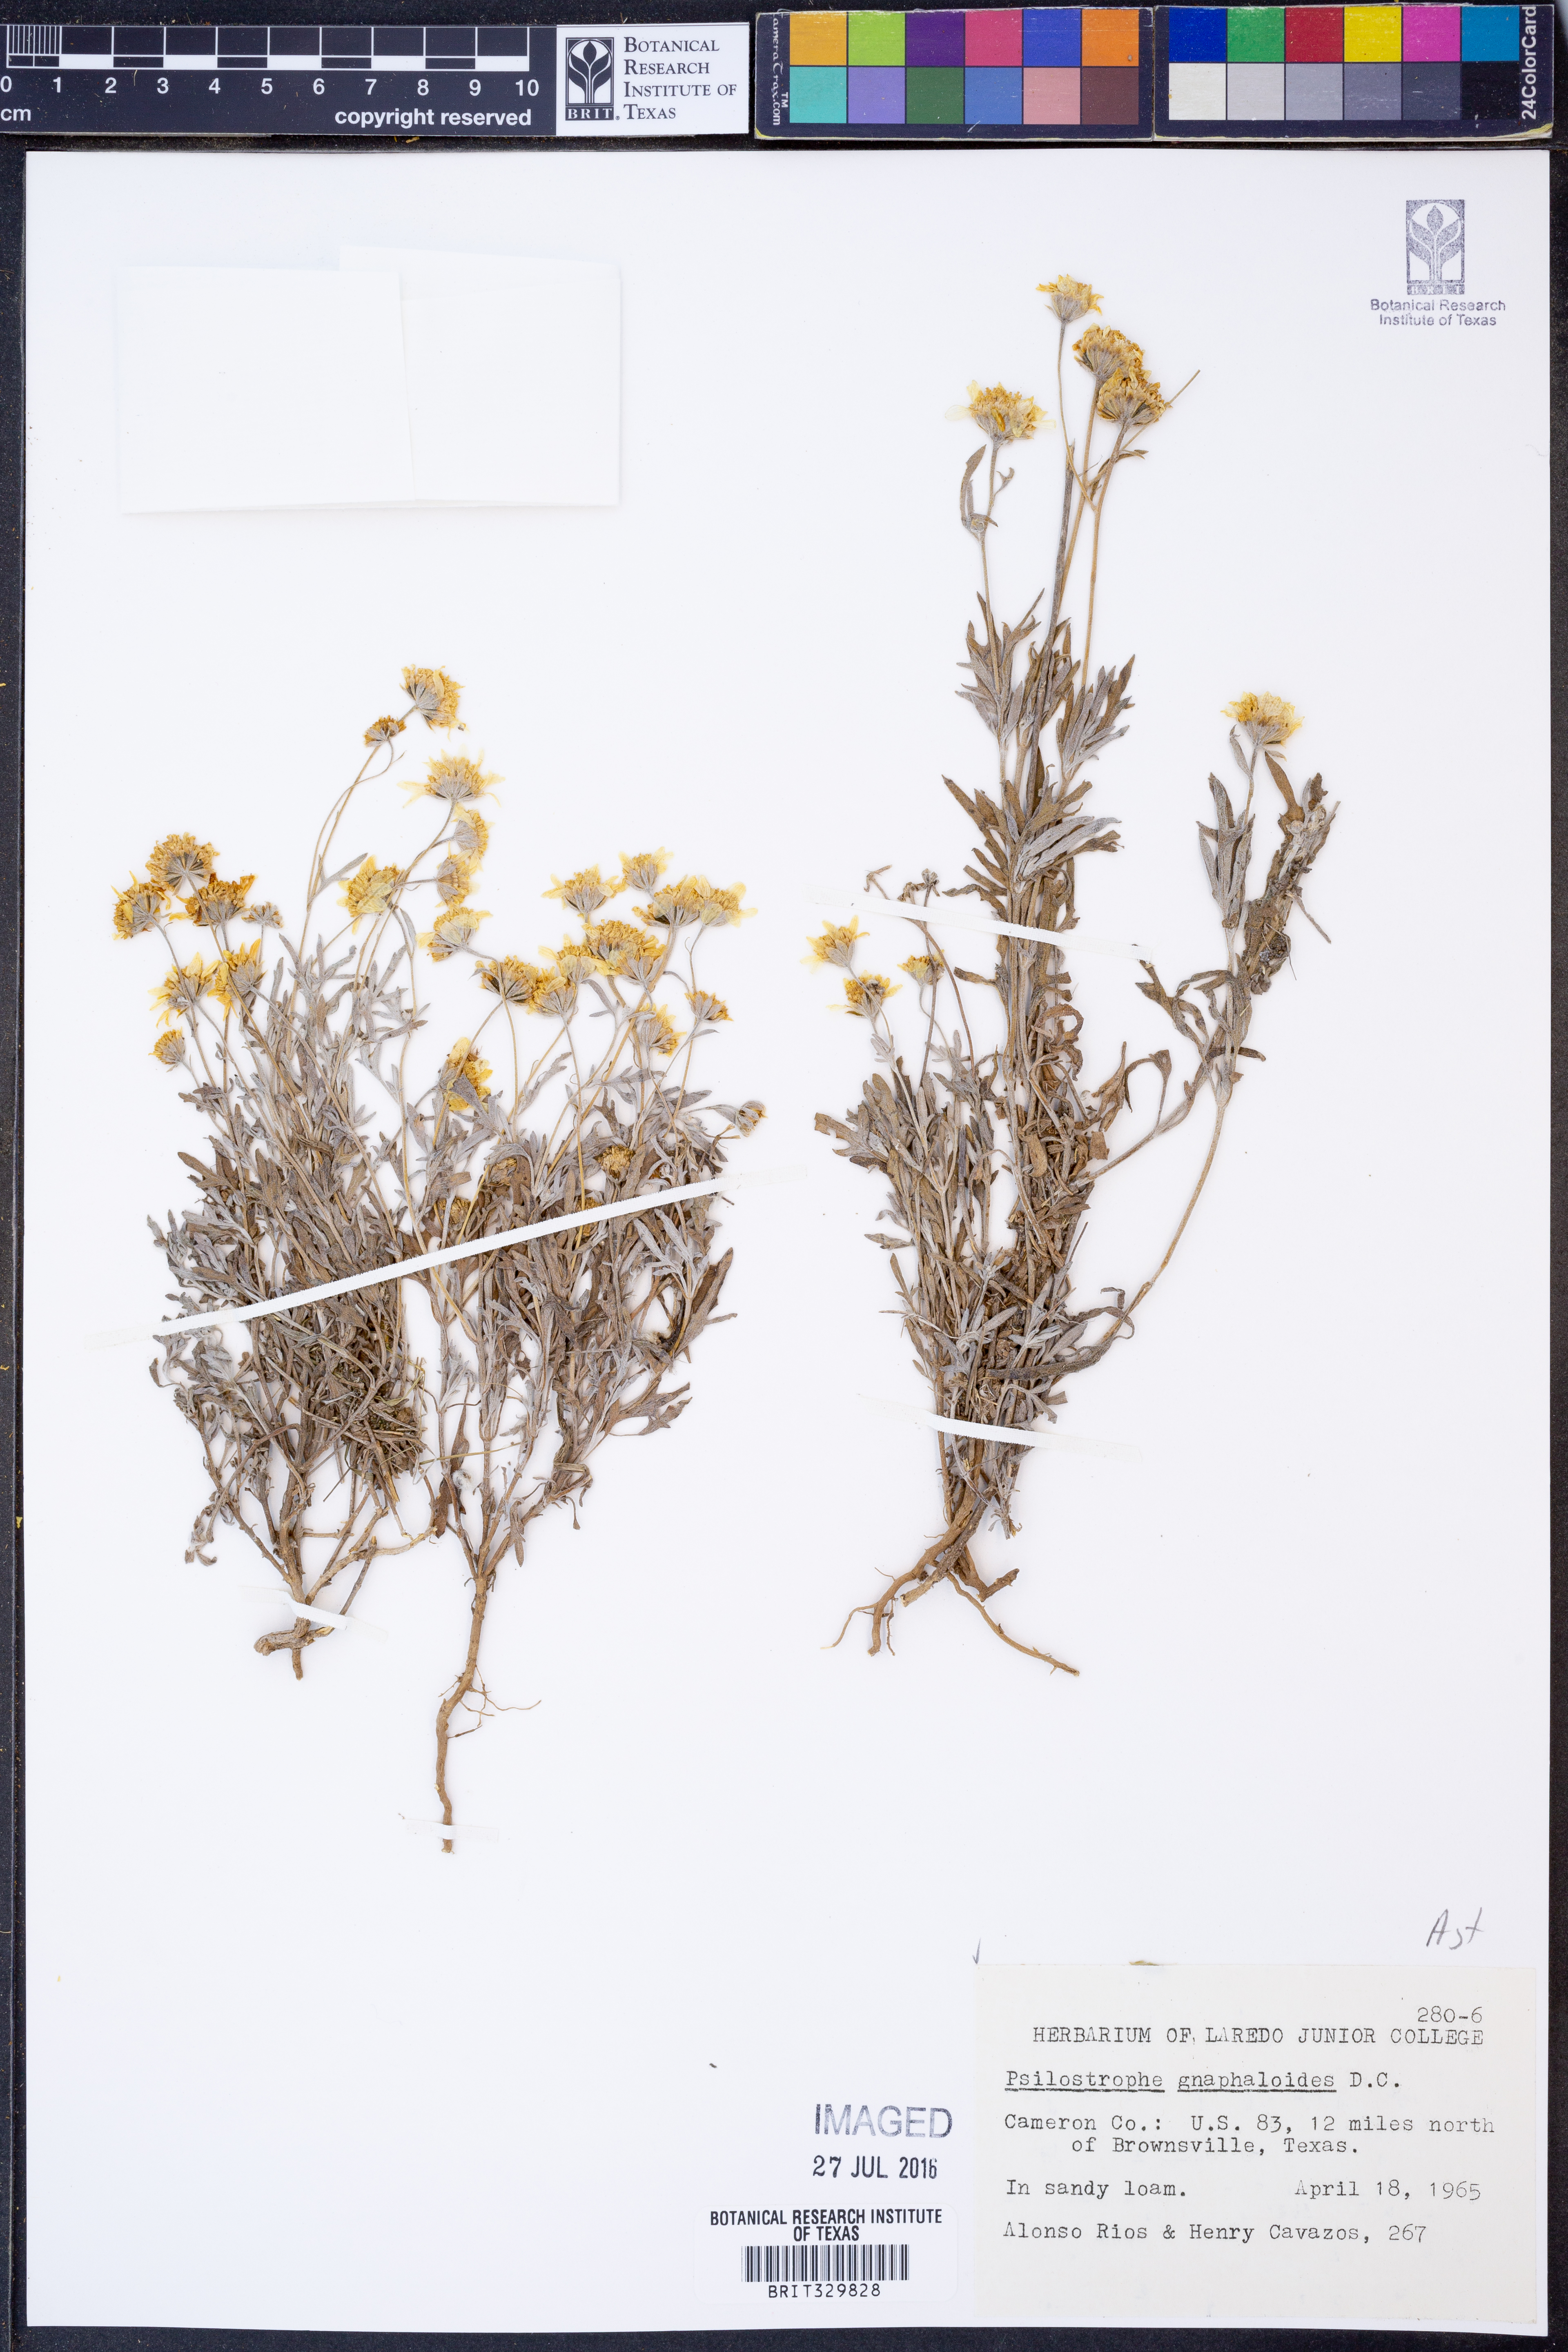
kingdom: Plantae
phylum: Tracheophyta
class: Magnoliopsida
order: Asterales
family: Asteraceae
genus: Psilostrophe
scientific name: Psilostrophe gnaphalioides
